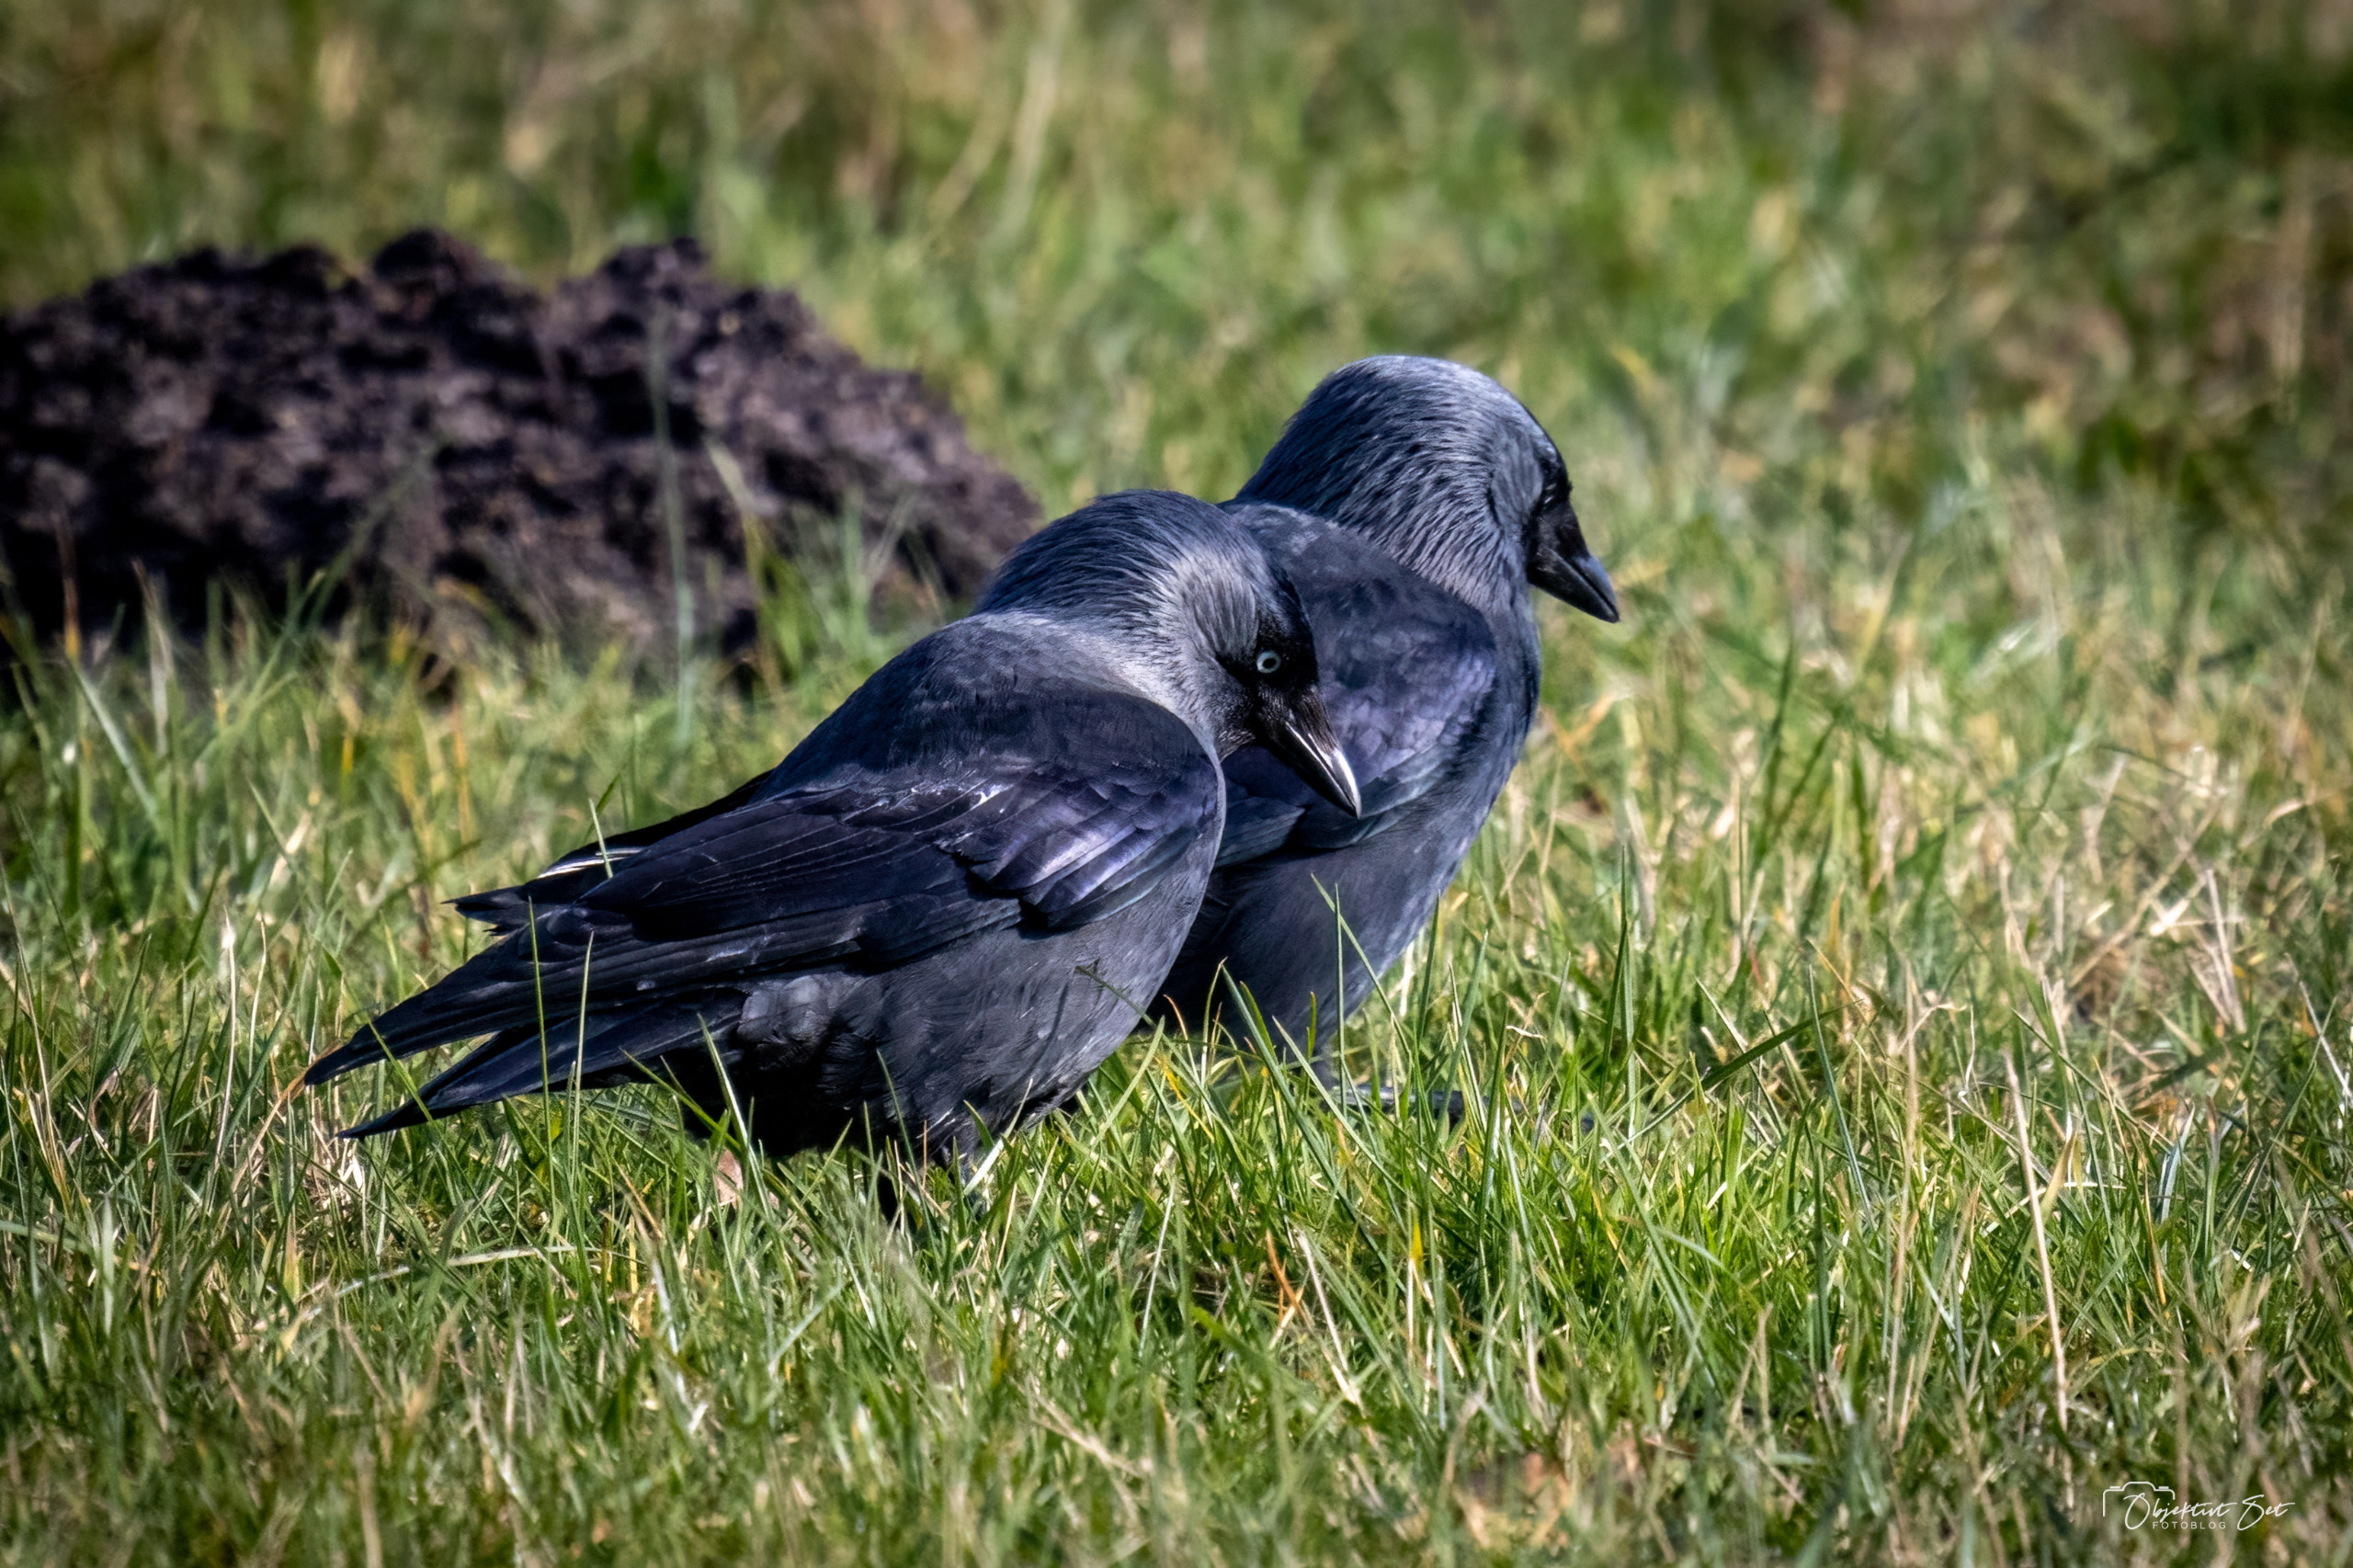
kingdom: Animalia
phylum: Chordata
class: Aves
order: Passeriformes
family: Corvidae
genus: Coloeus
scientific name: Coloeus monedula
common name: Allike
